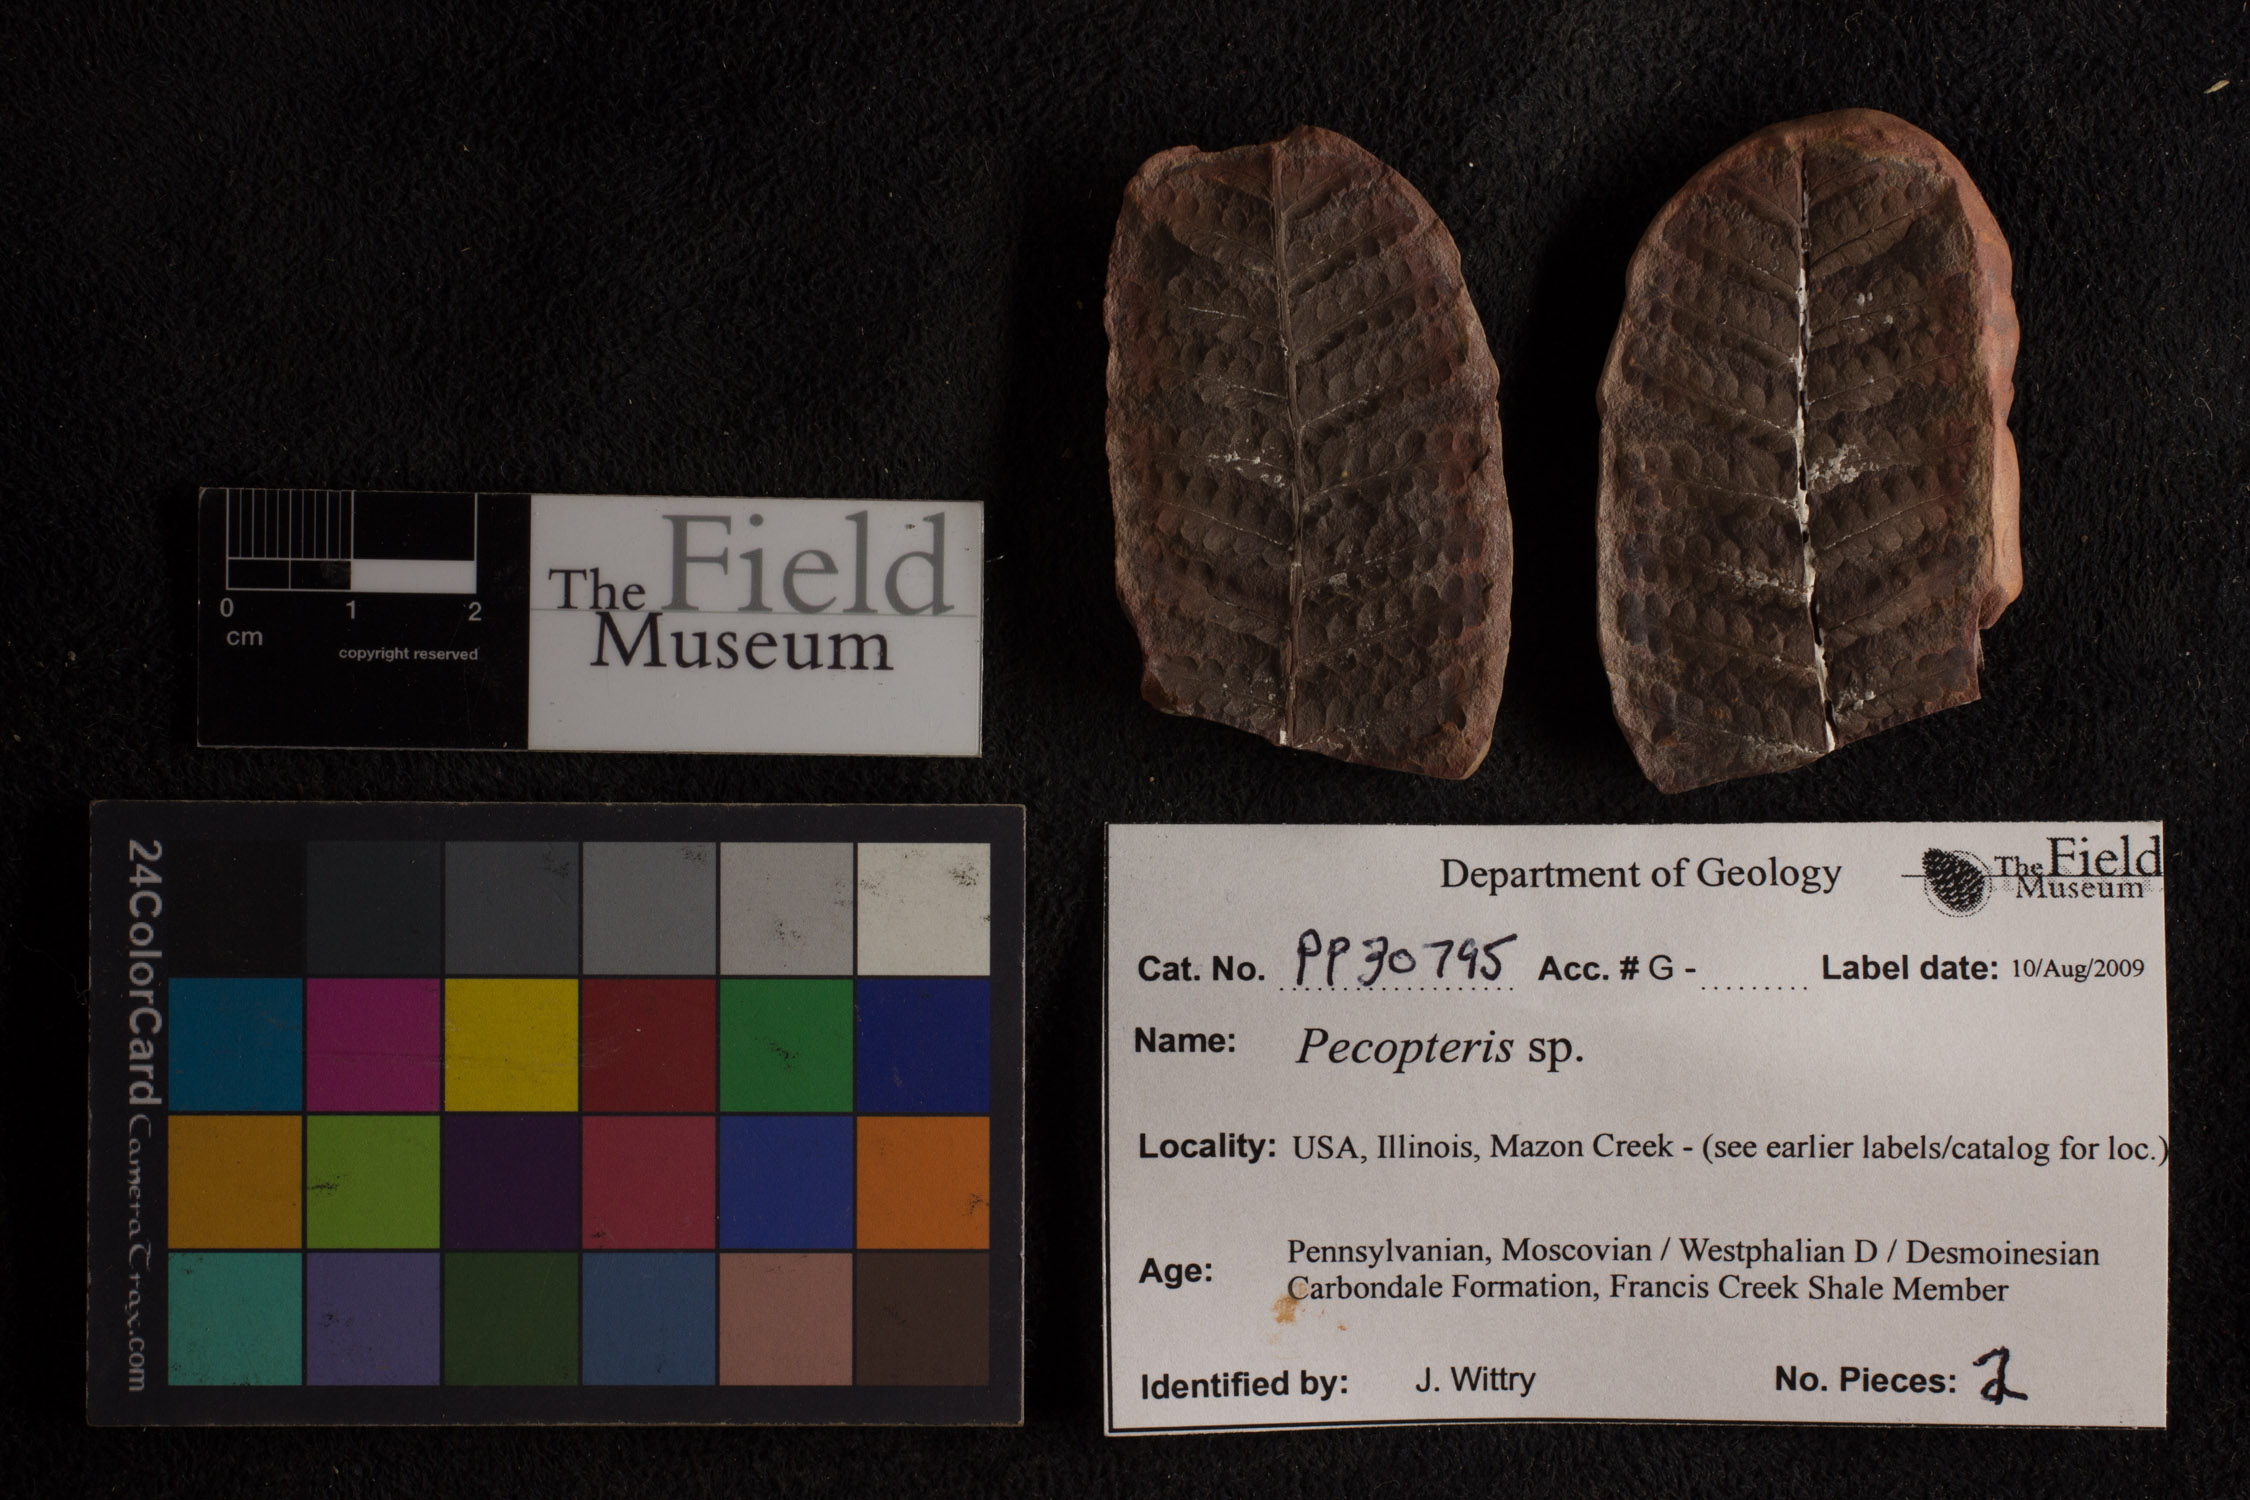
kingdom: Plantae
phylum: Tracheophyta
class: Polypodiopsida
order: Marattiales
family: Asterothecaceae
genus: Pecopteris
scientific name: Pecopteris
